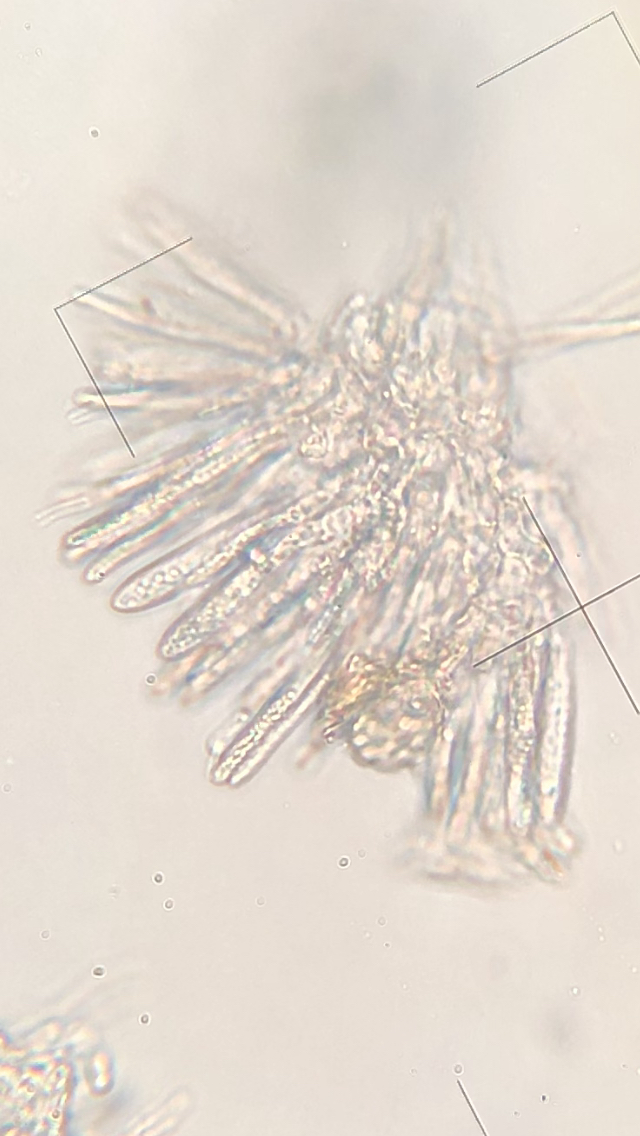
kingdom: Fungi
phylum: Ascomycota
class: Leotiomycetes
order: Helotiales
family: Helotiaceae
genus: Cyathicula
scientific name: Cyathicula cyathoidea
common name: pokal-stilkskive
